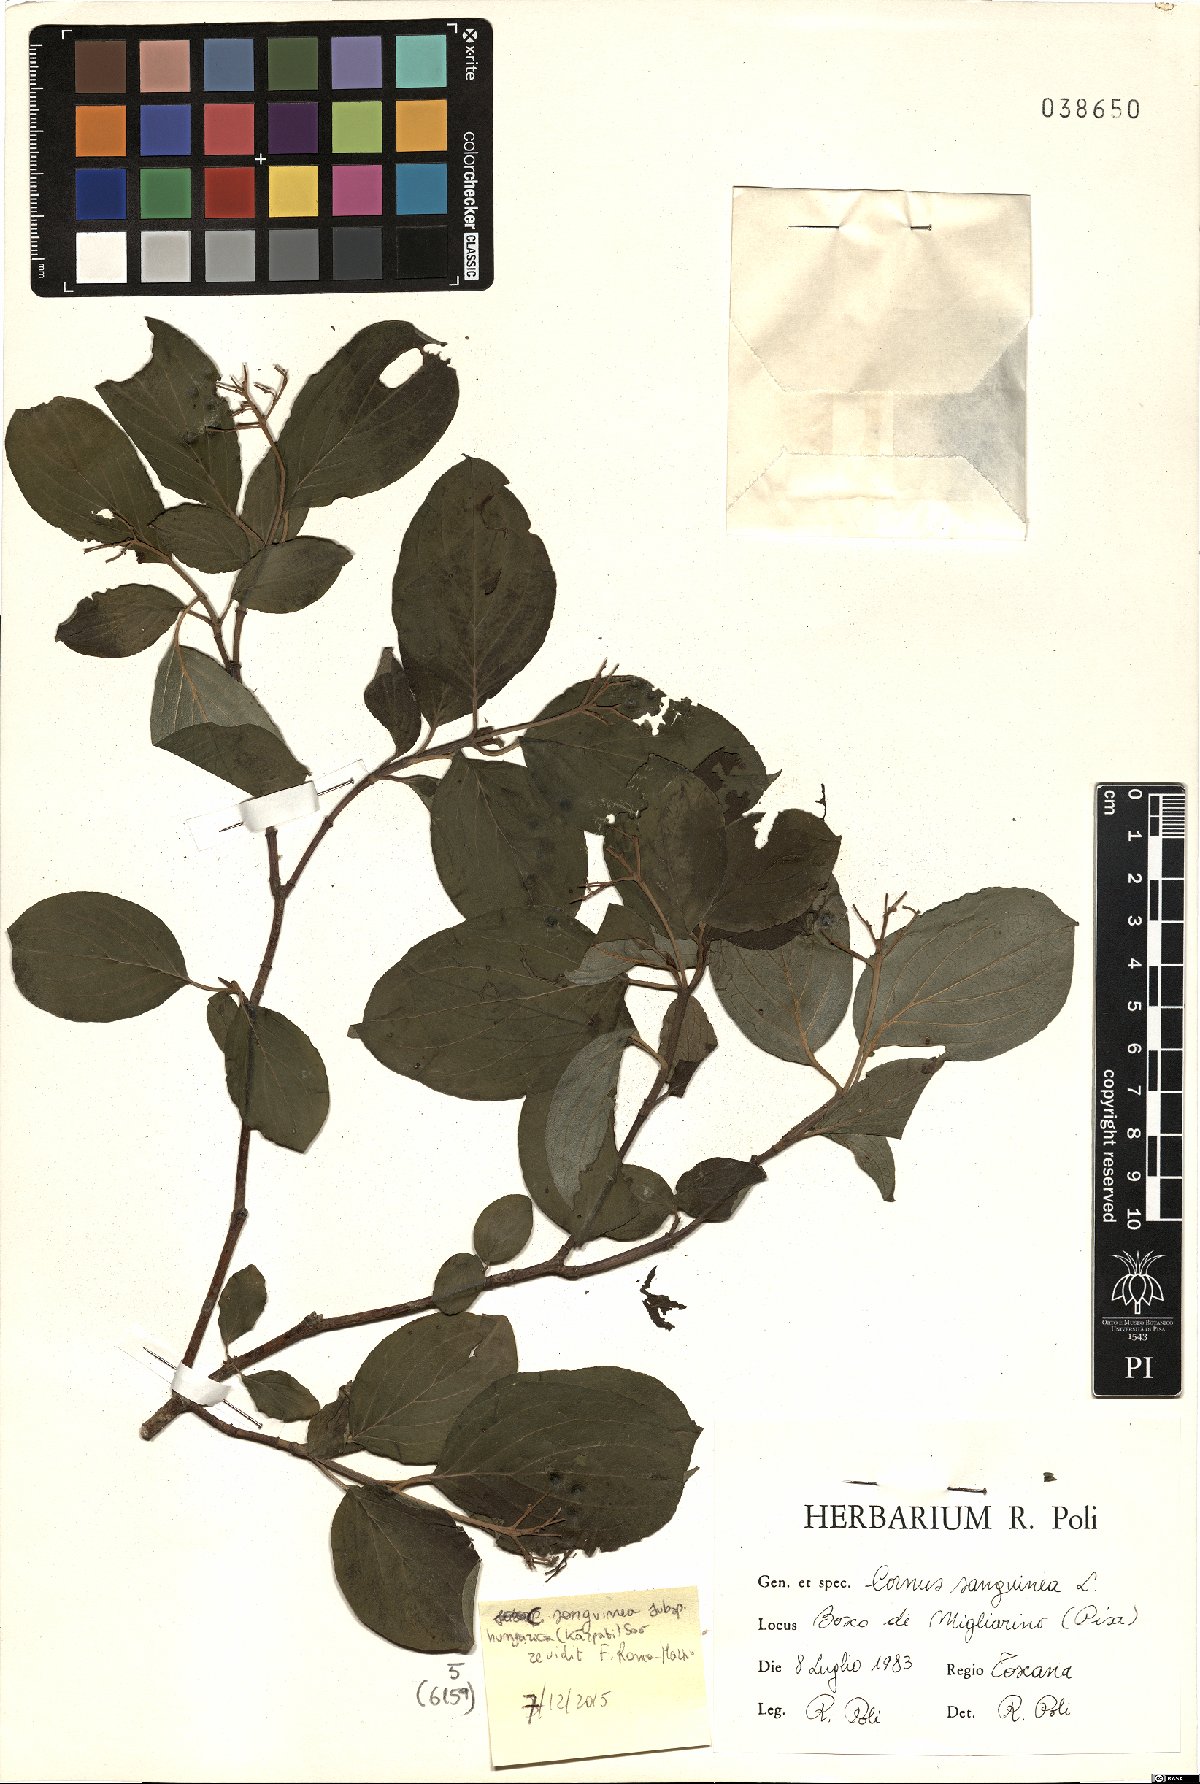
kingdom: Plantae
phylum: Tracheophyta
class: Magnoliopsida
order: Cornales
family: Cornaceae
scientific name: Cornaceae
